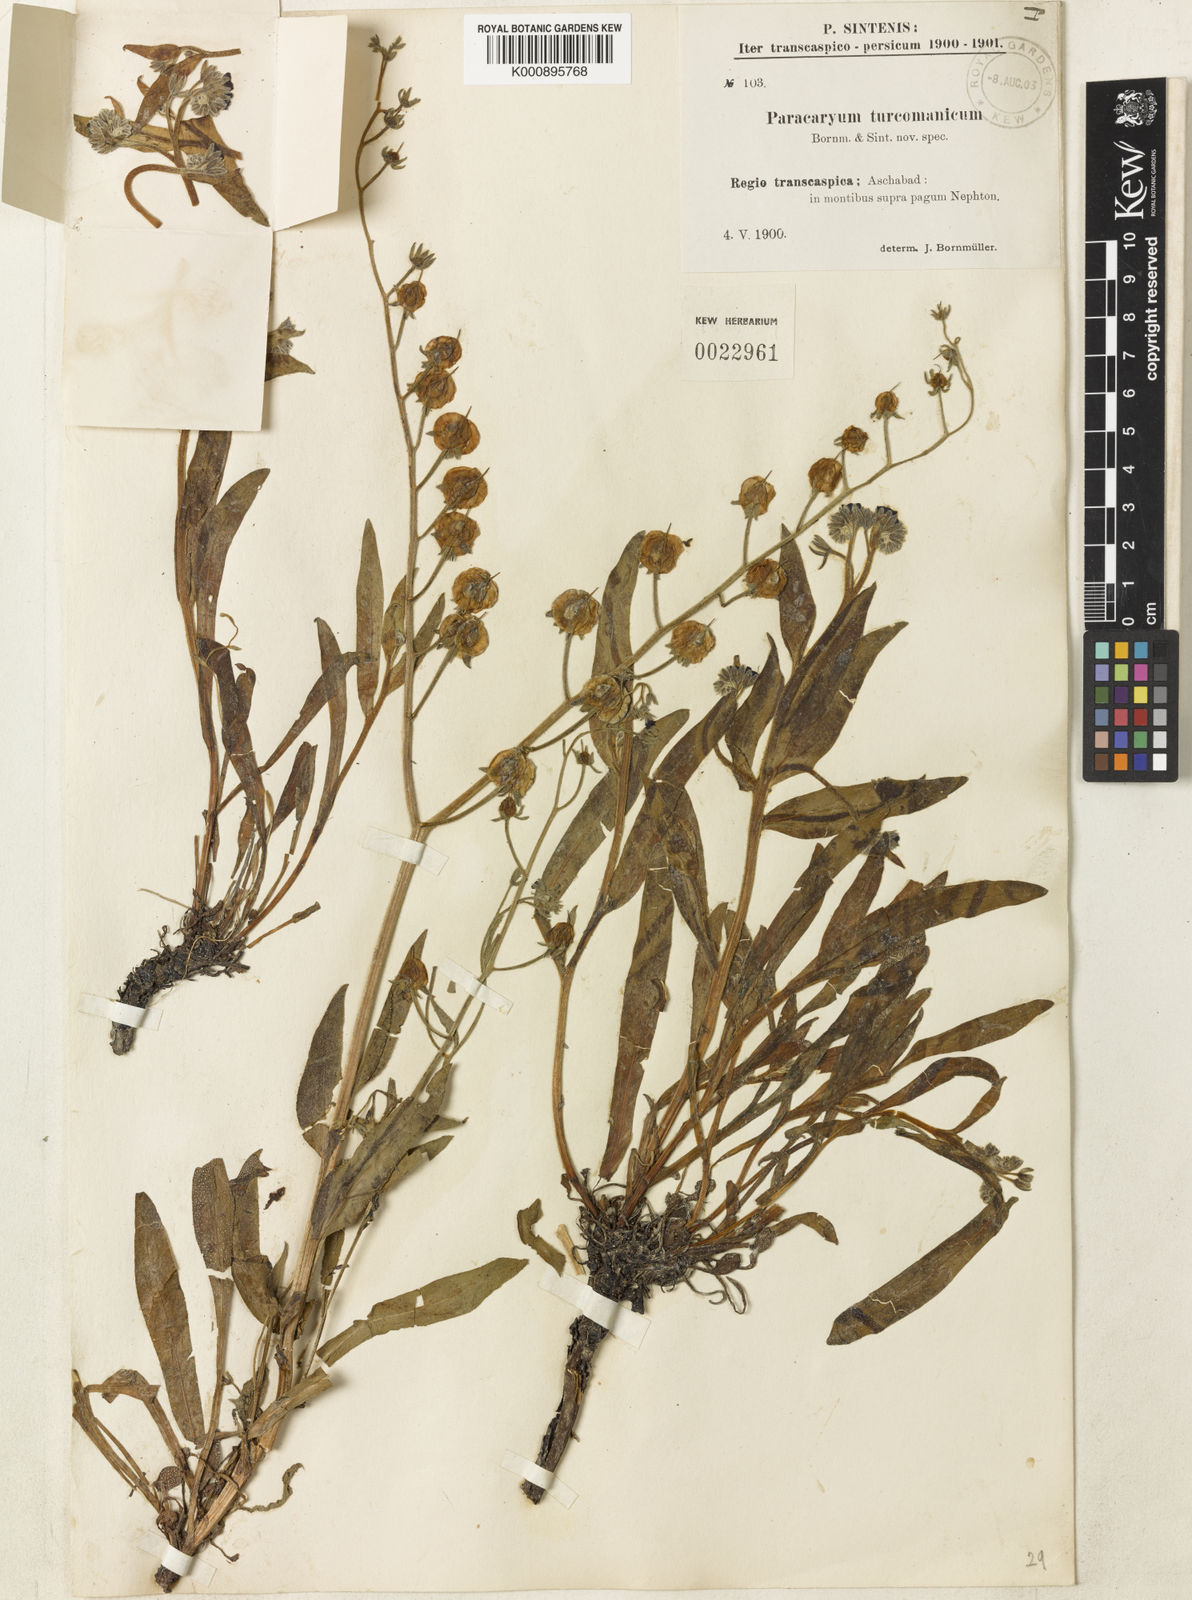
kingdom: Plantae
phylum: Tracheophyta
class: Magnoliopsida
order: Boraginales
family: Boraginaceae
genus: Paracaryum
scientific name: Paracaryum turcomanicum
